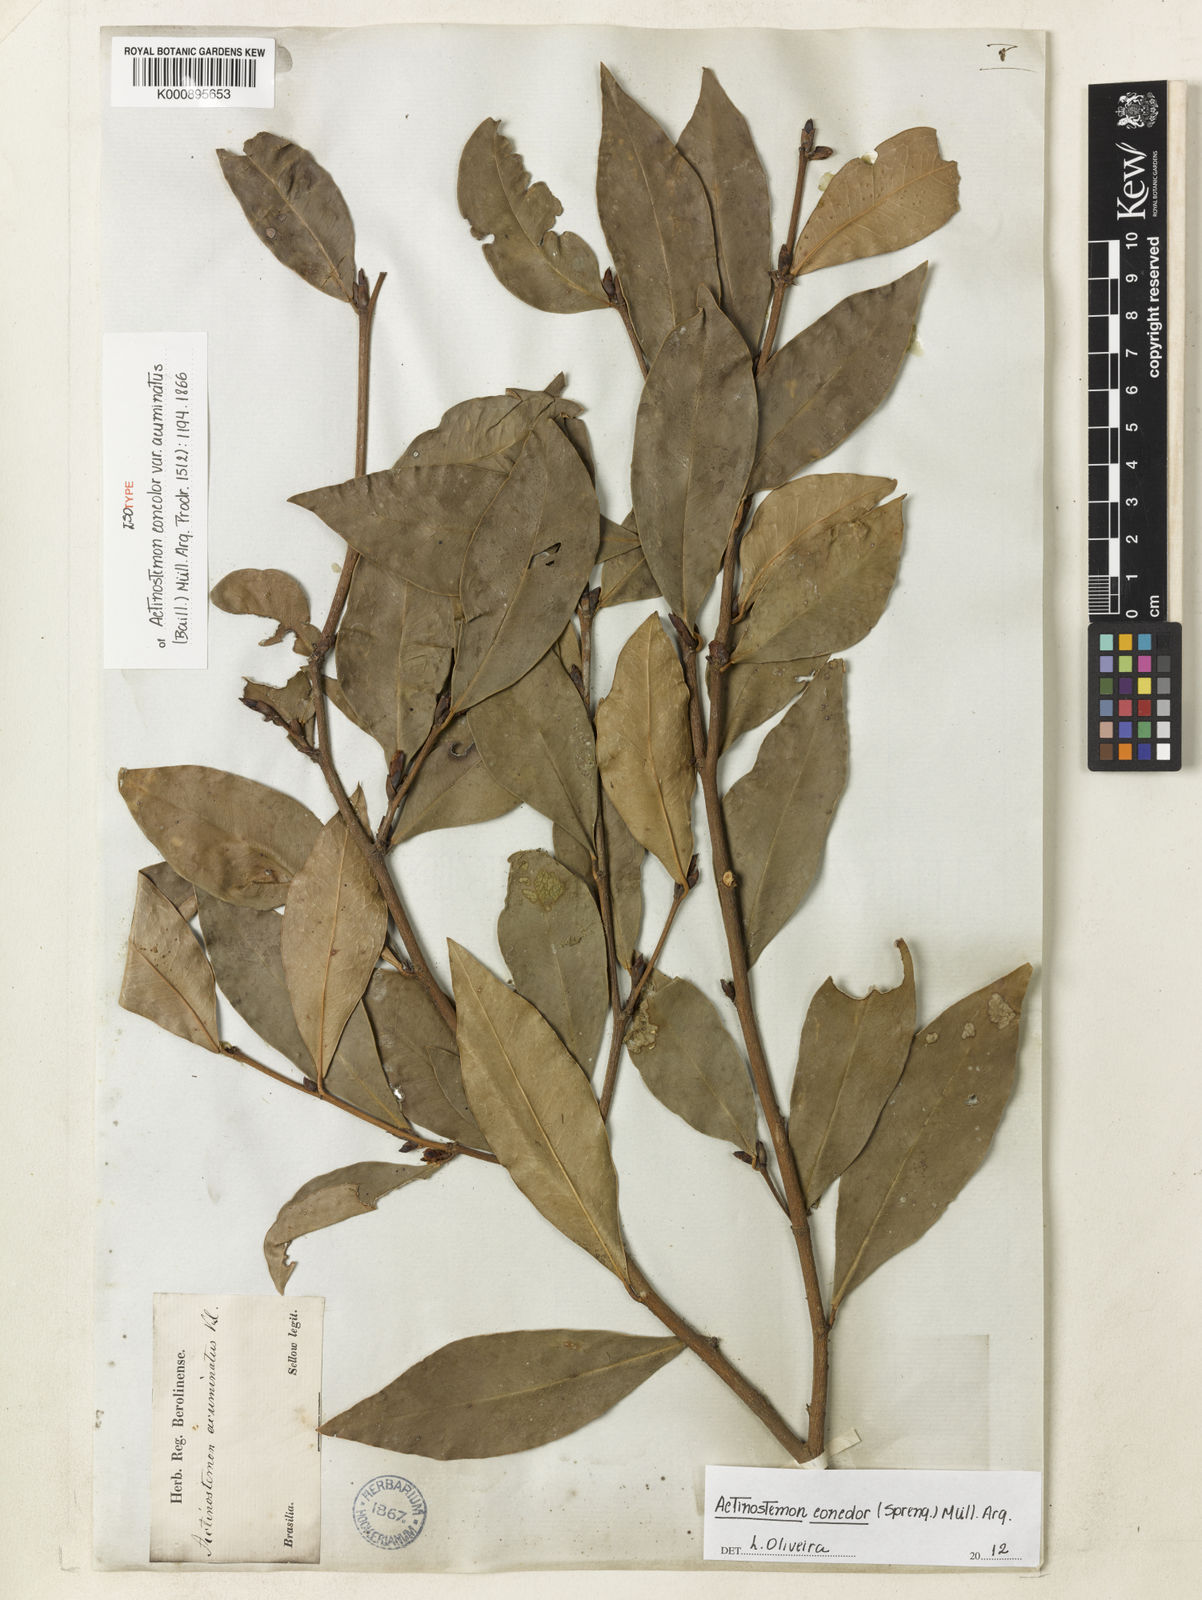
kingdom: Plantae
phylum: Tracheophyta
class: Magnoliopsida
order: Malpighiales
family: Euphorbiaceae
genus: Actinostemon
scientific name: Actinostemon
